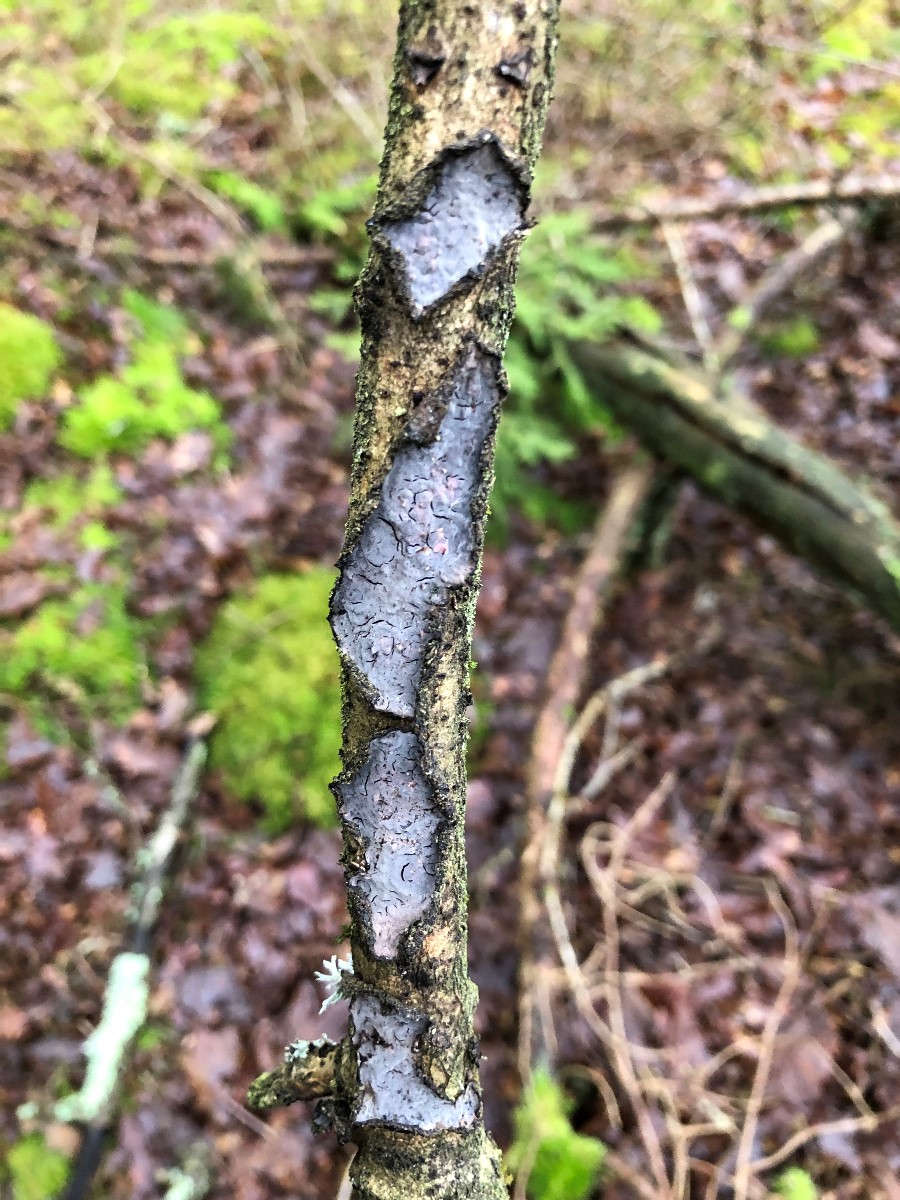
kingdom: Fungi
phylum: Basidiomycota
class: Agaricomycetes
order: Russulales
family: Peniophoraceae
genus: Peniophora
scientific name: Peniophora quercina
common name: ege-voksskind
